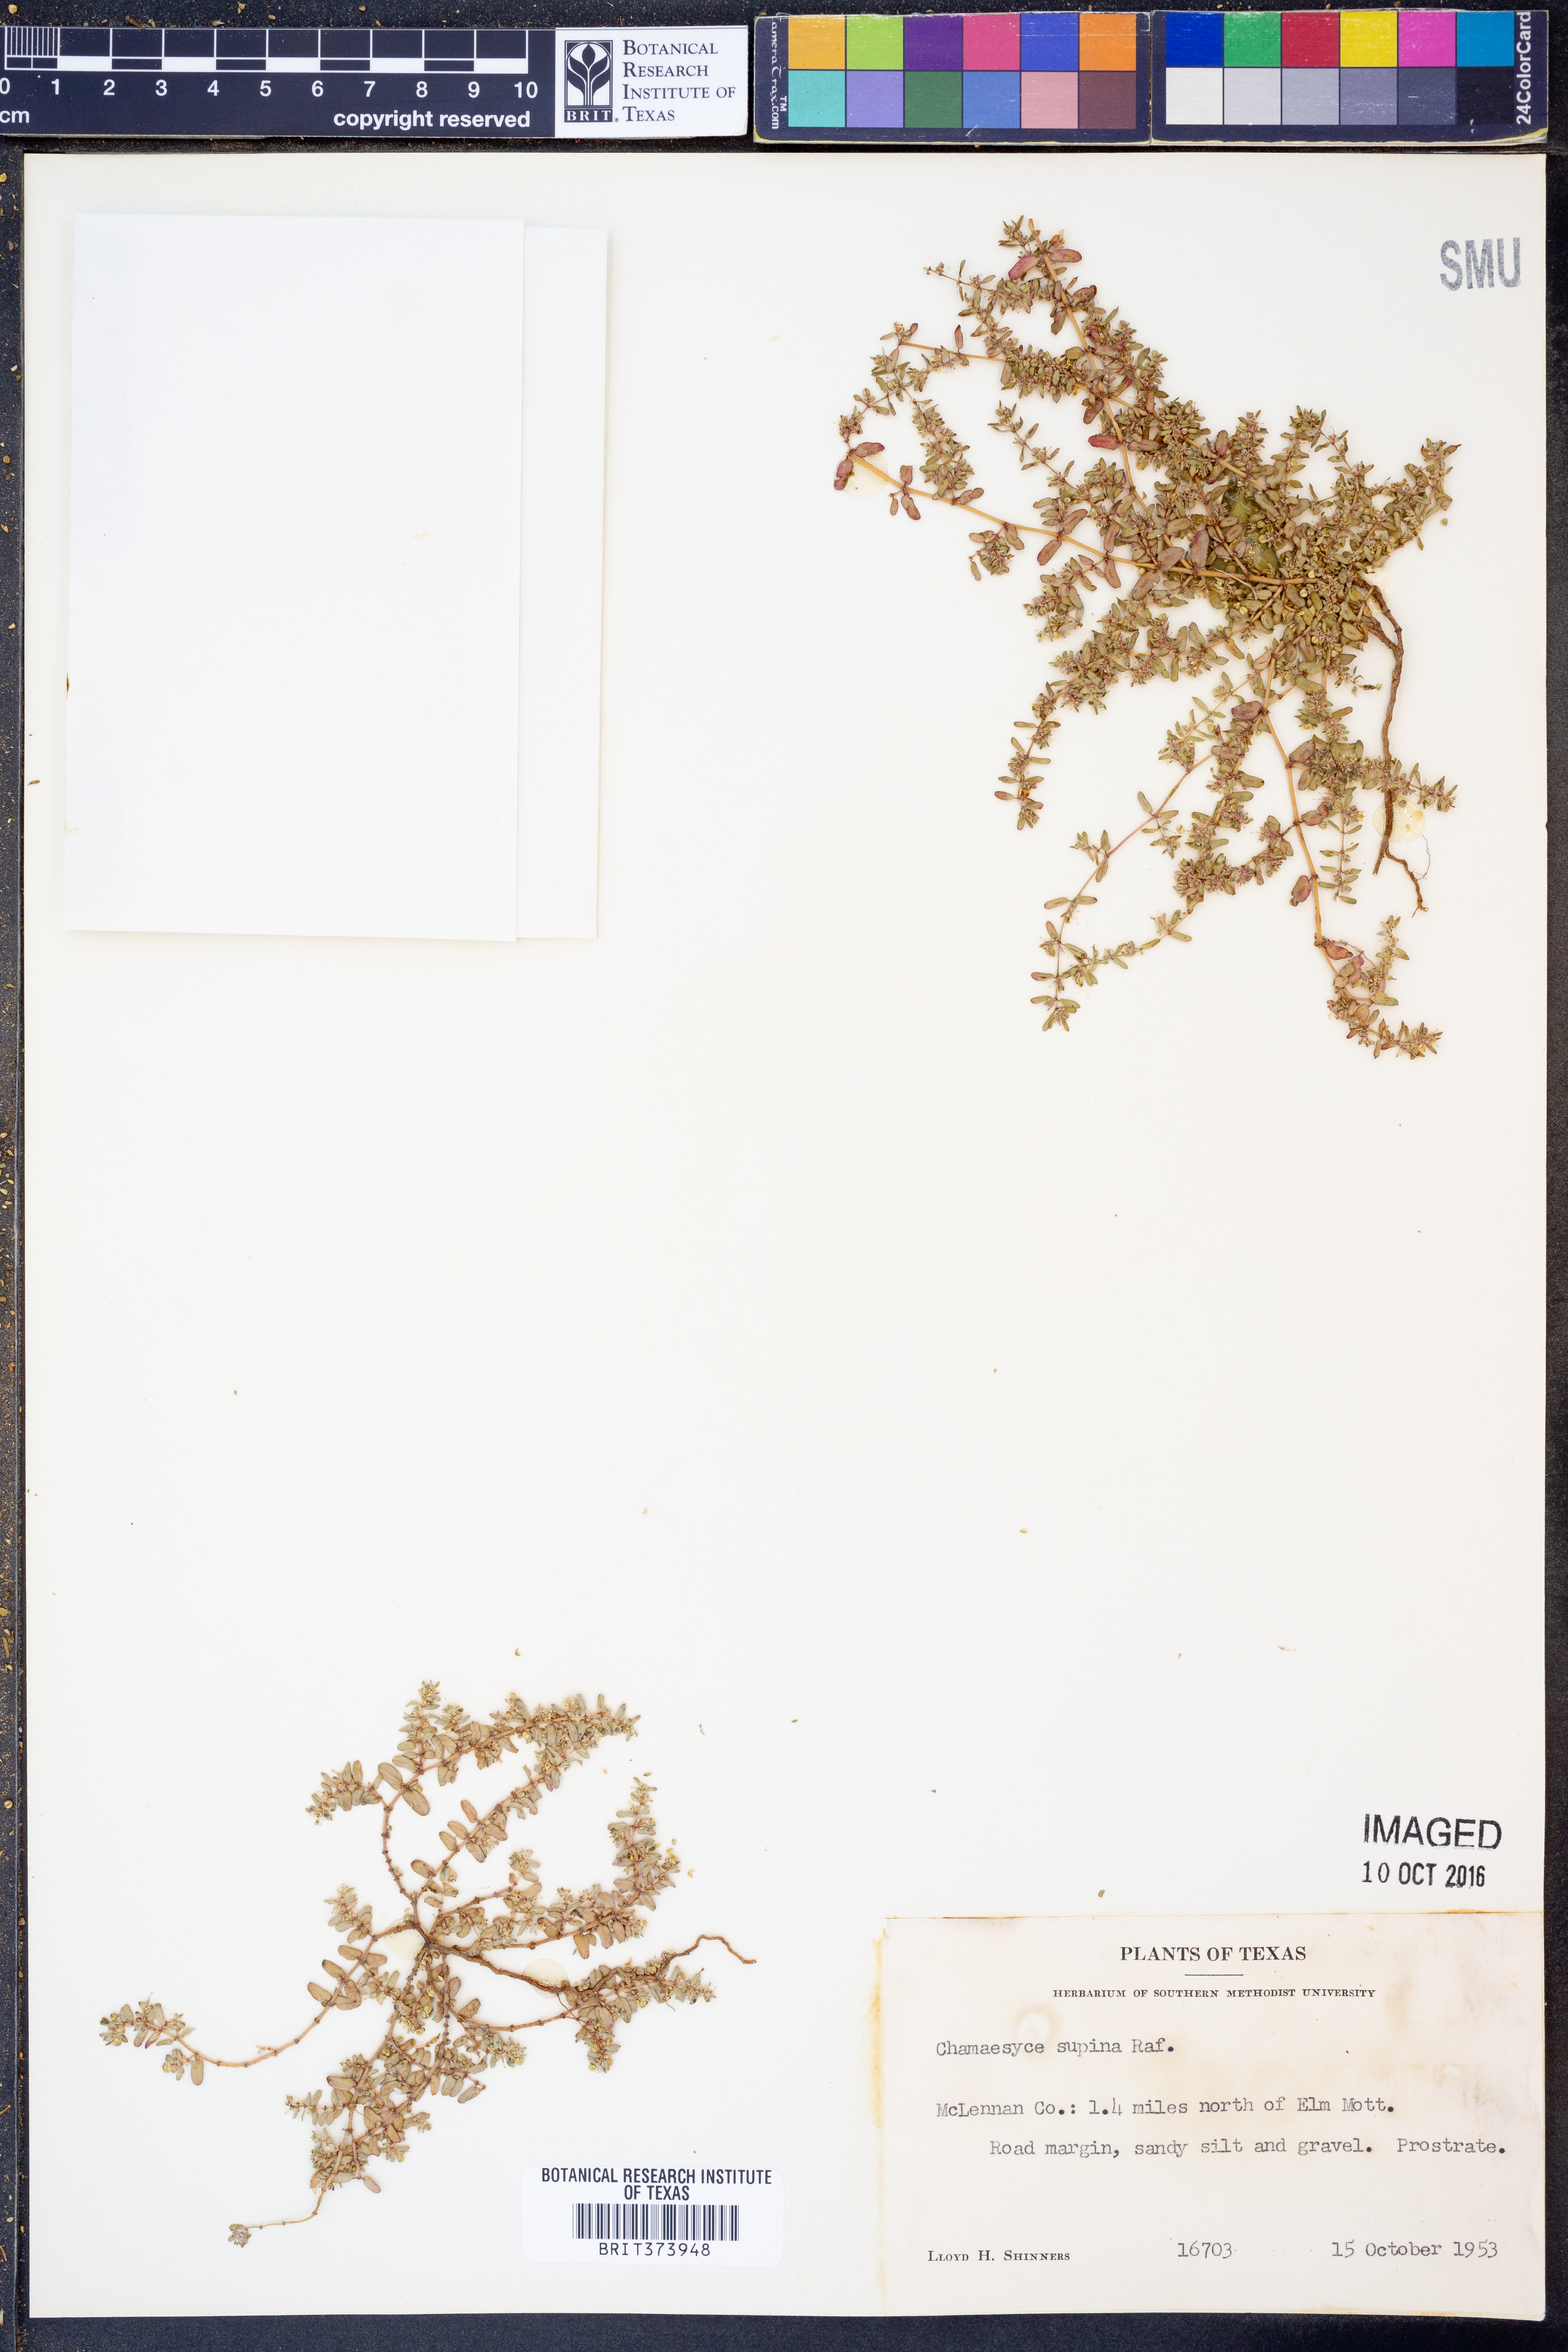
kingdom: Plantae
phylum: Tracheophyta
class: Magnoliopsida
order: Malpighiales
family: Euphorbiaceae
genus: Euphorbia
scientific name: Euphorbia maculata
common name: Spotted spurge
